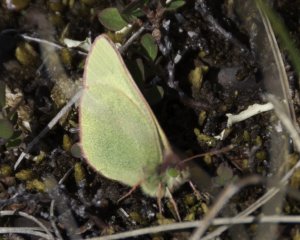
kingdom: Animalia
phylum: Arthropoda
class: Insecta
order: Lepidoptera
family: Pieridae
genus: Colias
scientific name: Colias palaeno
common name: Chippewa Sulphur
